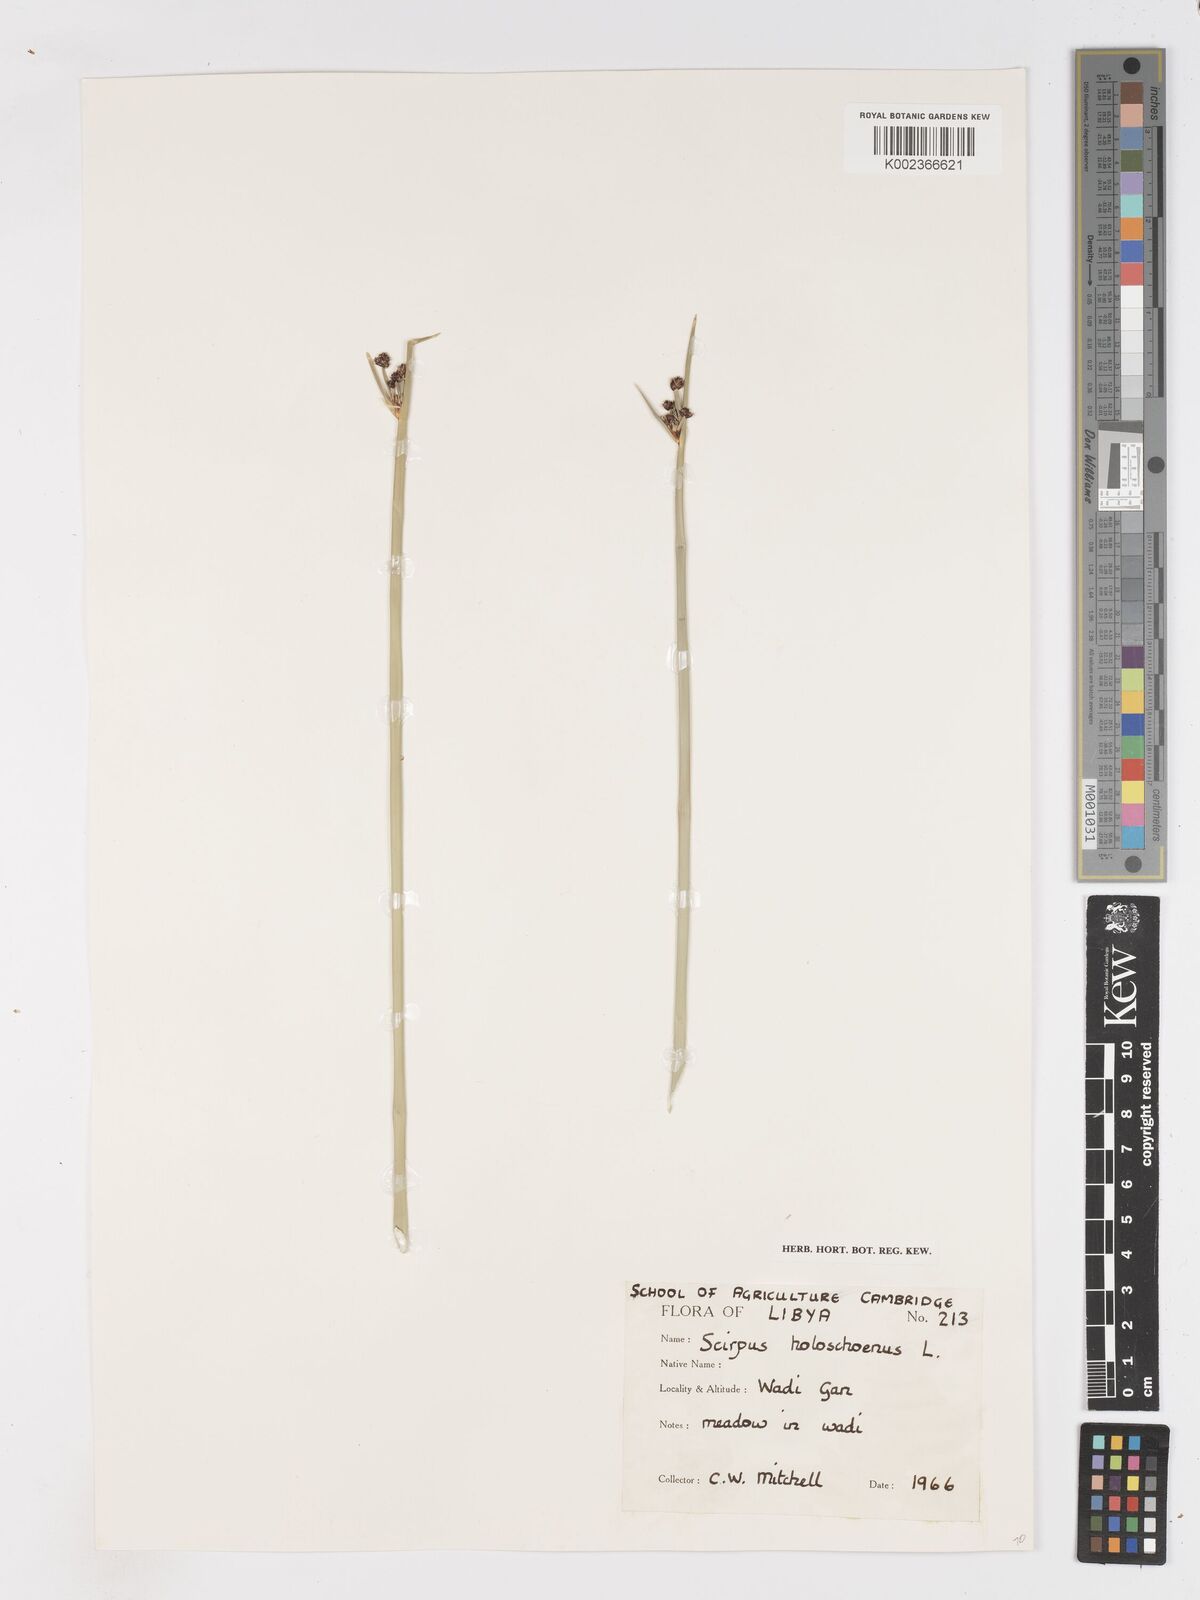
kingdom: Plantae
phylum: Tracheophyta
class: Liliopsida
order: Poales
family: Cyperaceae
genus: Scirpoides
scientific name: Scirpoides holoschoenus
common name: Round-headed club-rush
